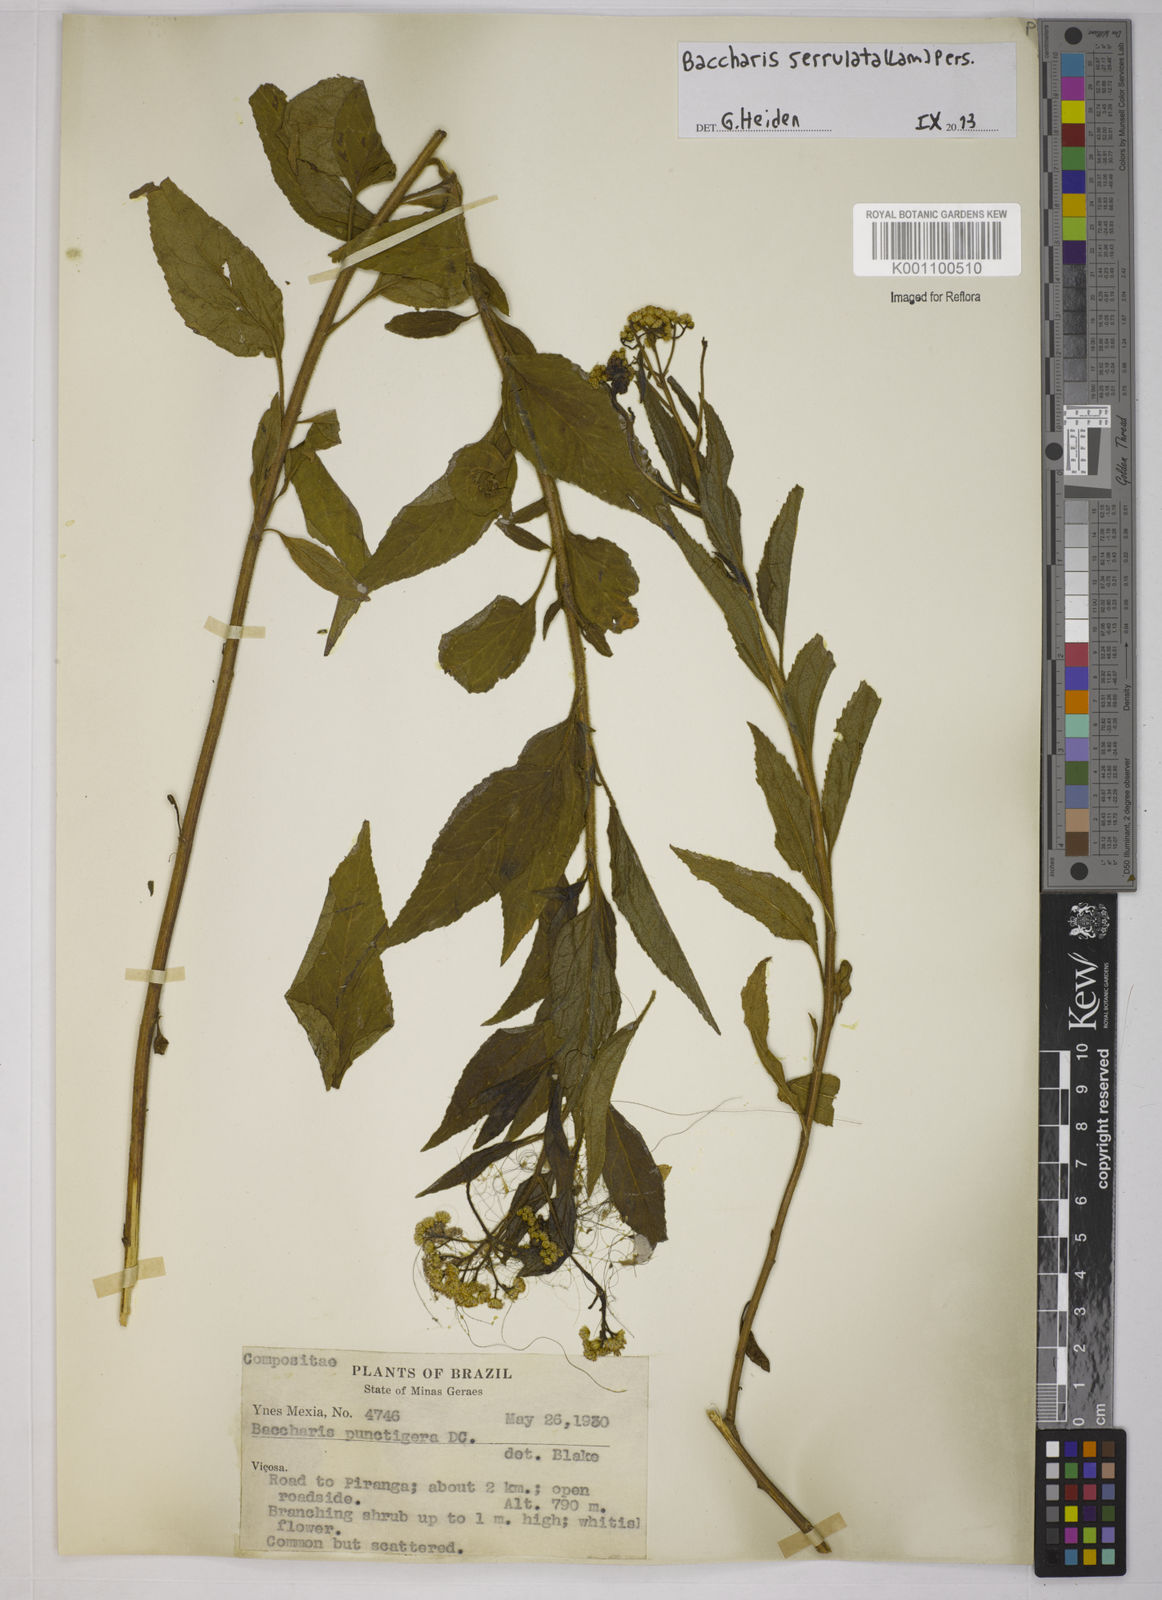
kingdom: Plantae
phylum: Tracheophyta
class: Magnoliopsida
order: Asterales
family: Asteraceae
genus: Baccharis
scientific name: Baccharis serrulata
